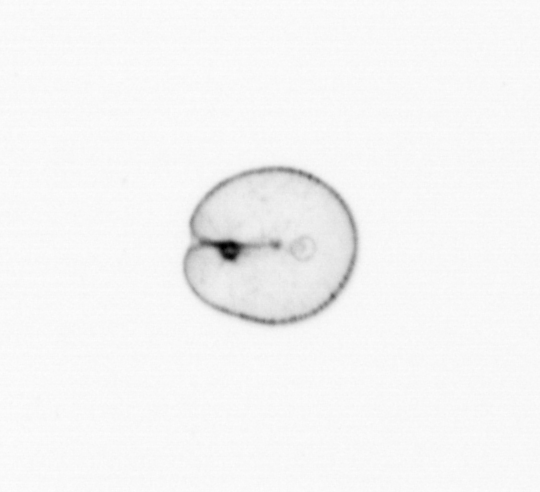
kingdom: Chromista
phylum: Myzozoa
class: Dinophyceae
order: Noctilucales
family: Noctilucaceae
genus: Noctiluca
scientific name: Noctiluca scintillans
